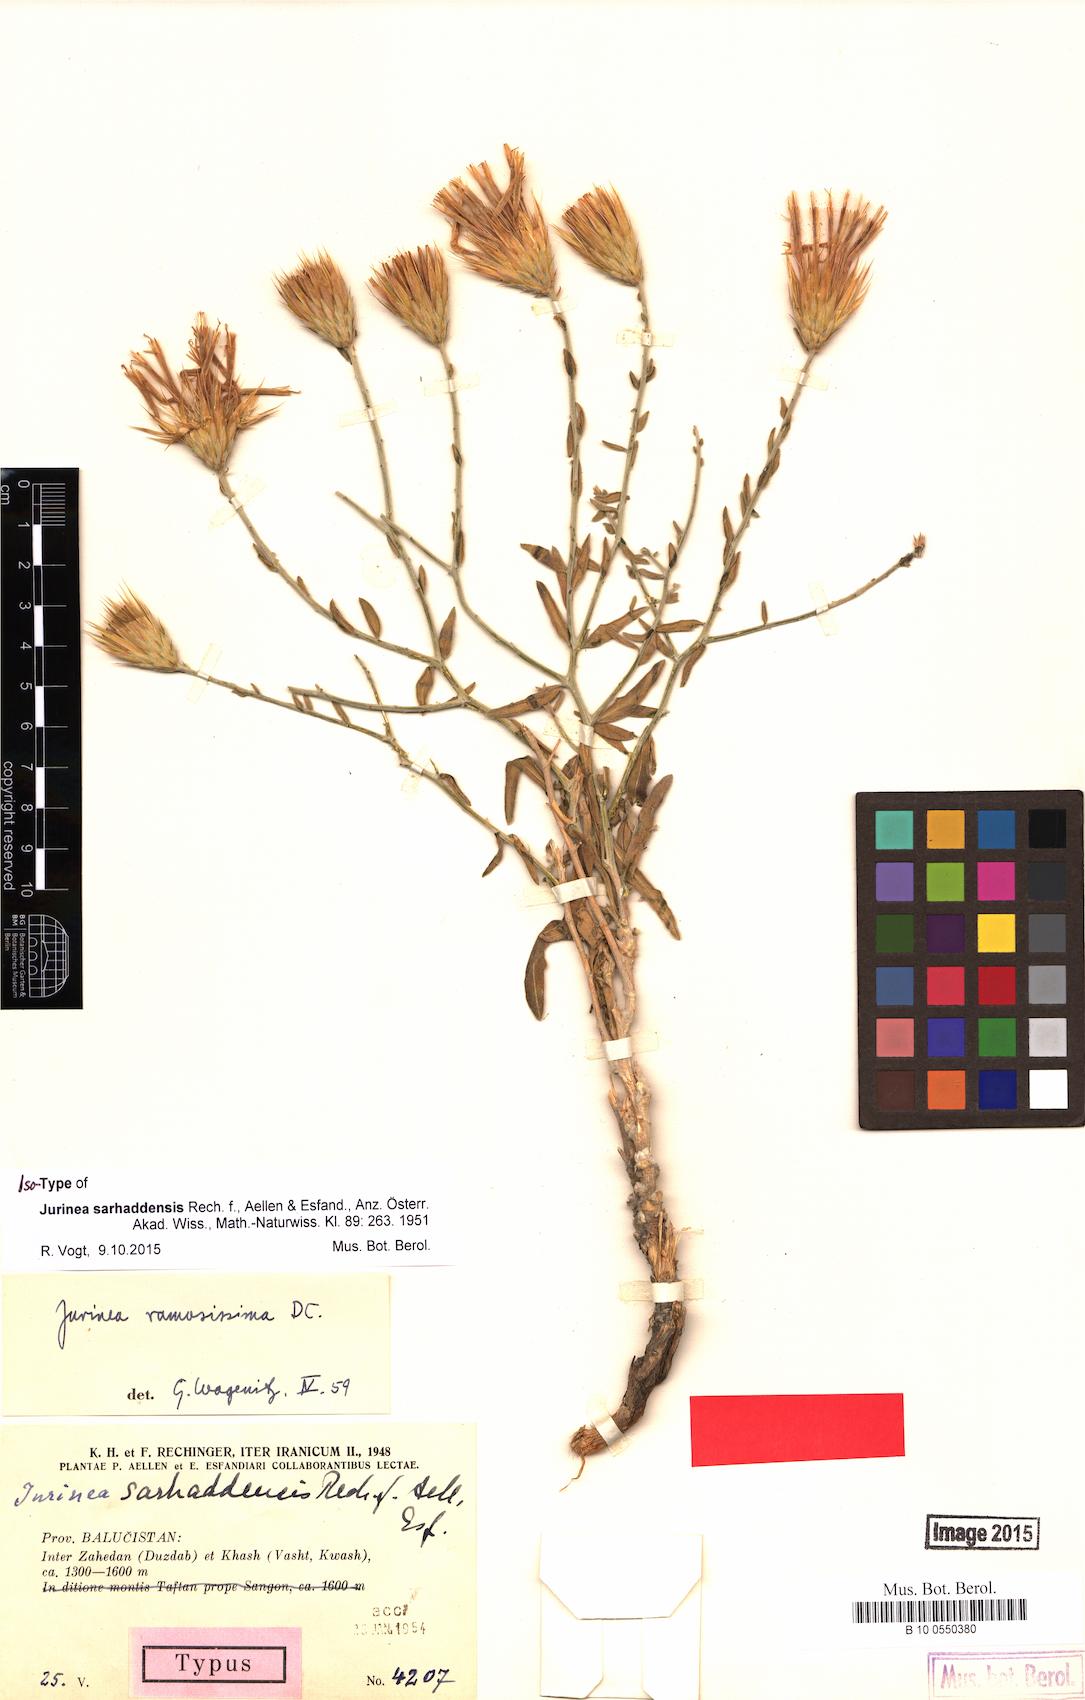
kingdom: Plantae
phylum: Tracheophyta
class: Magnoliopsida
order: Asterales
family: Asteraceae
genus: Jurinea
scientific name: Jurinea ramosissima
